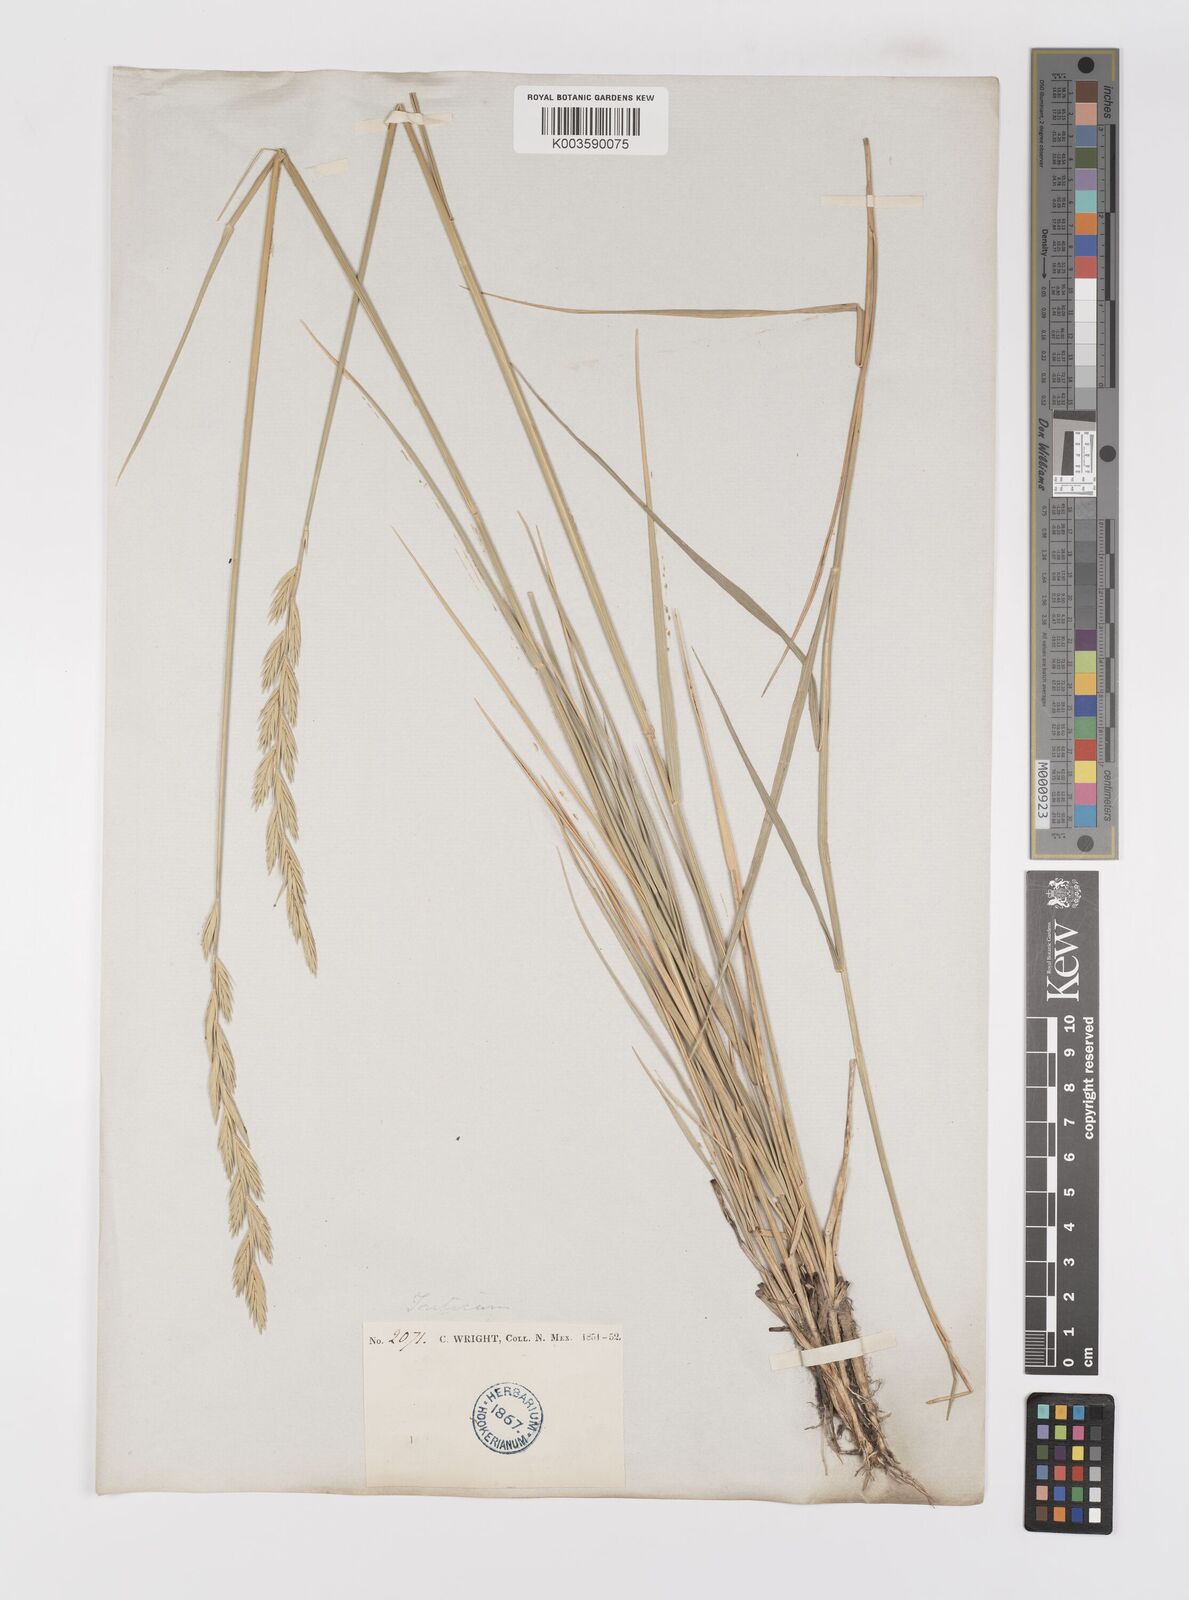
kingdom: Plantae
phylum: Tracheophyta
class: Liliopsida
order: Poales
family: Poaceae
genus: Elymus
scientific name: Elymus repens
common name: Quackgrass
